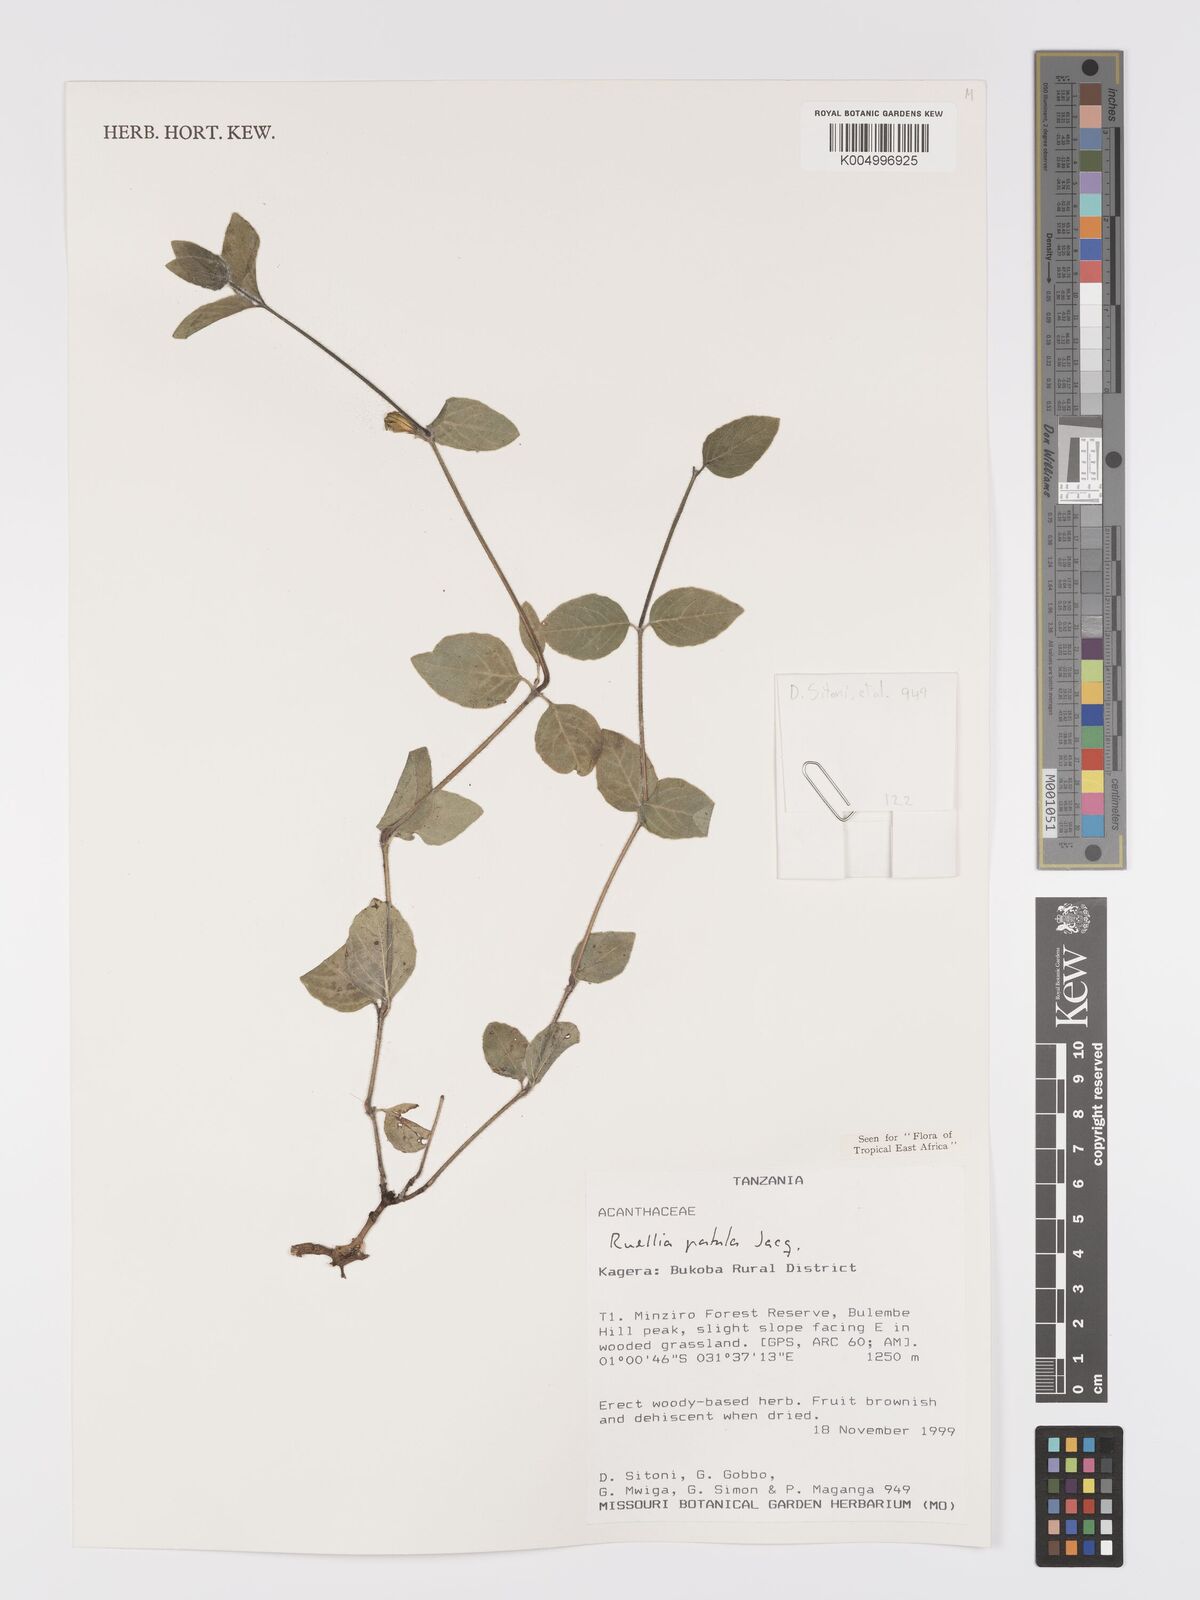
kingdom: Plantae
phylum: Tracheophyta
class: Magnoliopsida
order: Lamiales
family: Acanthaceae
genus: Ruellia
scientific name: Ruellia patula
